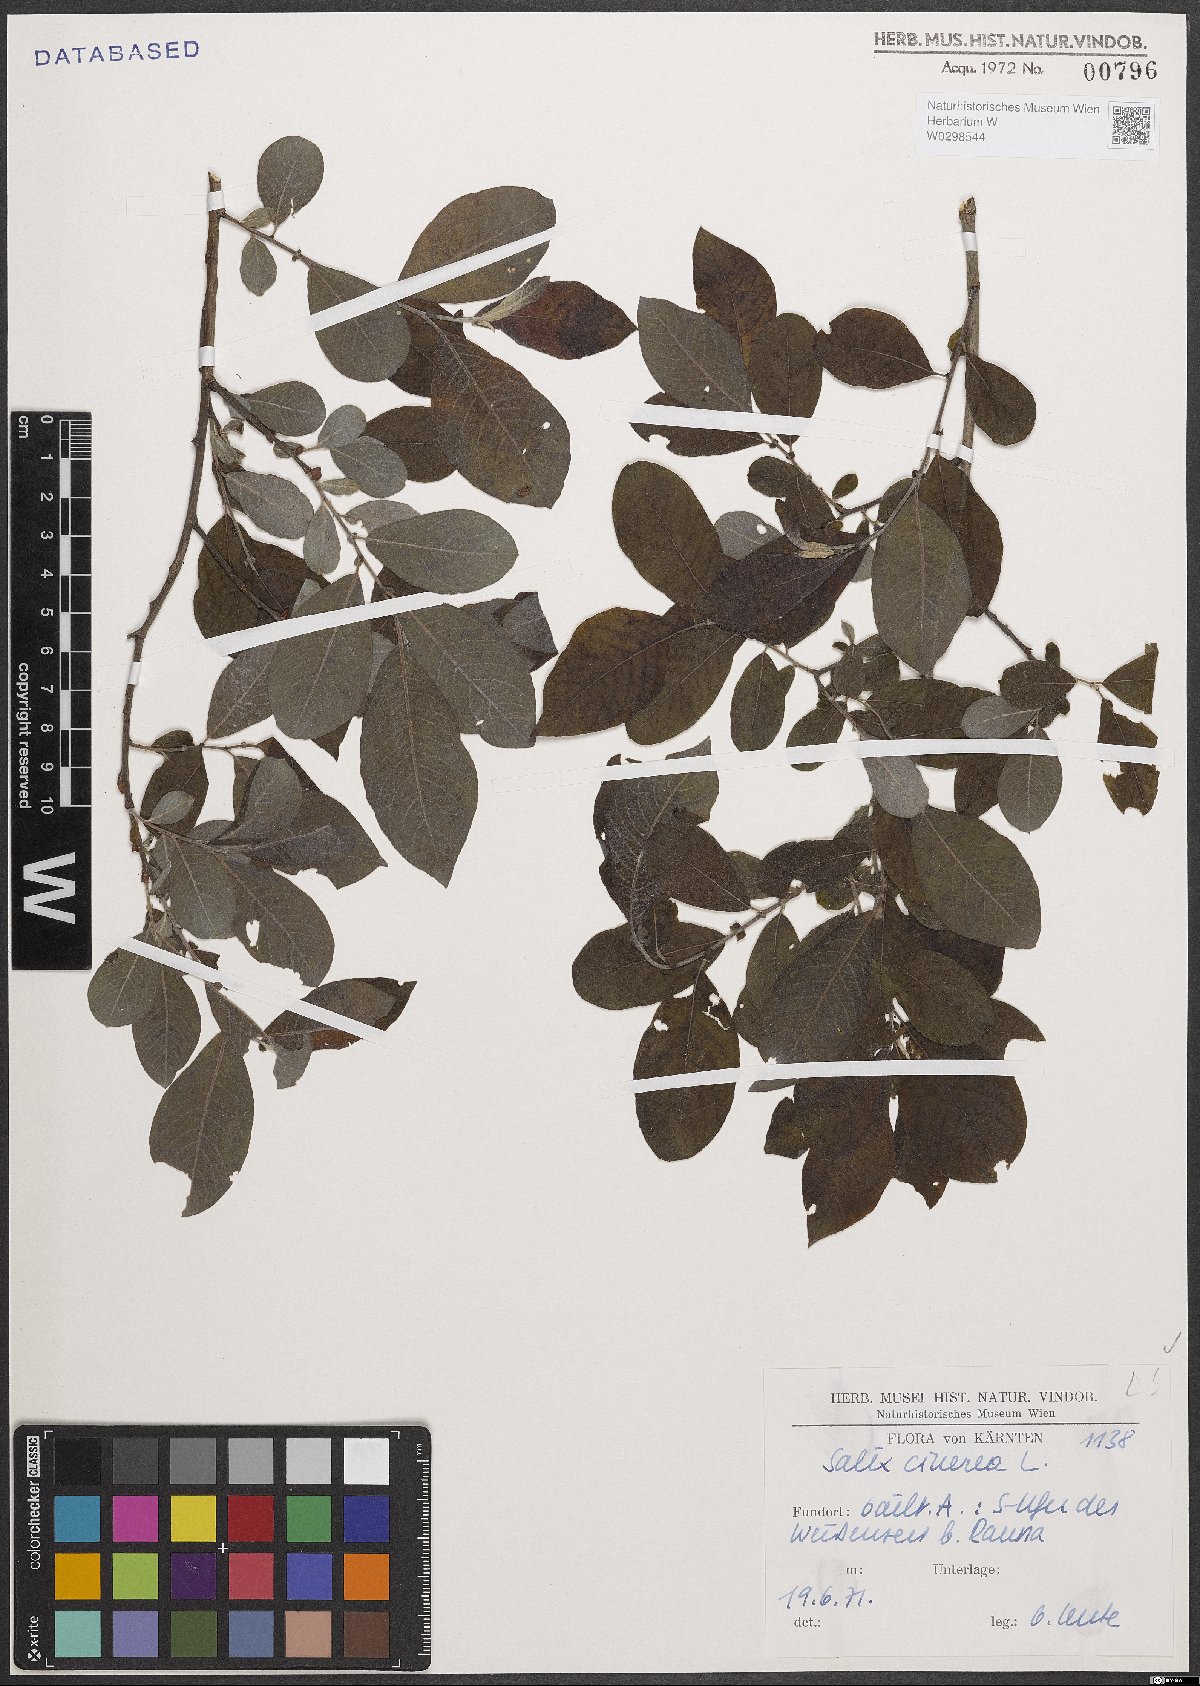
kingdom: Plantae
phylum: Tracheophyta
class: Magnoliopsida
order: Malpighiales
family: Salicaceae
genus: Salix
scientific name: Salix cinerea
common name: Common sallow
